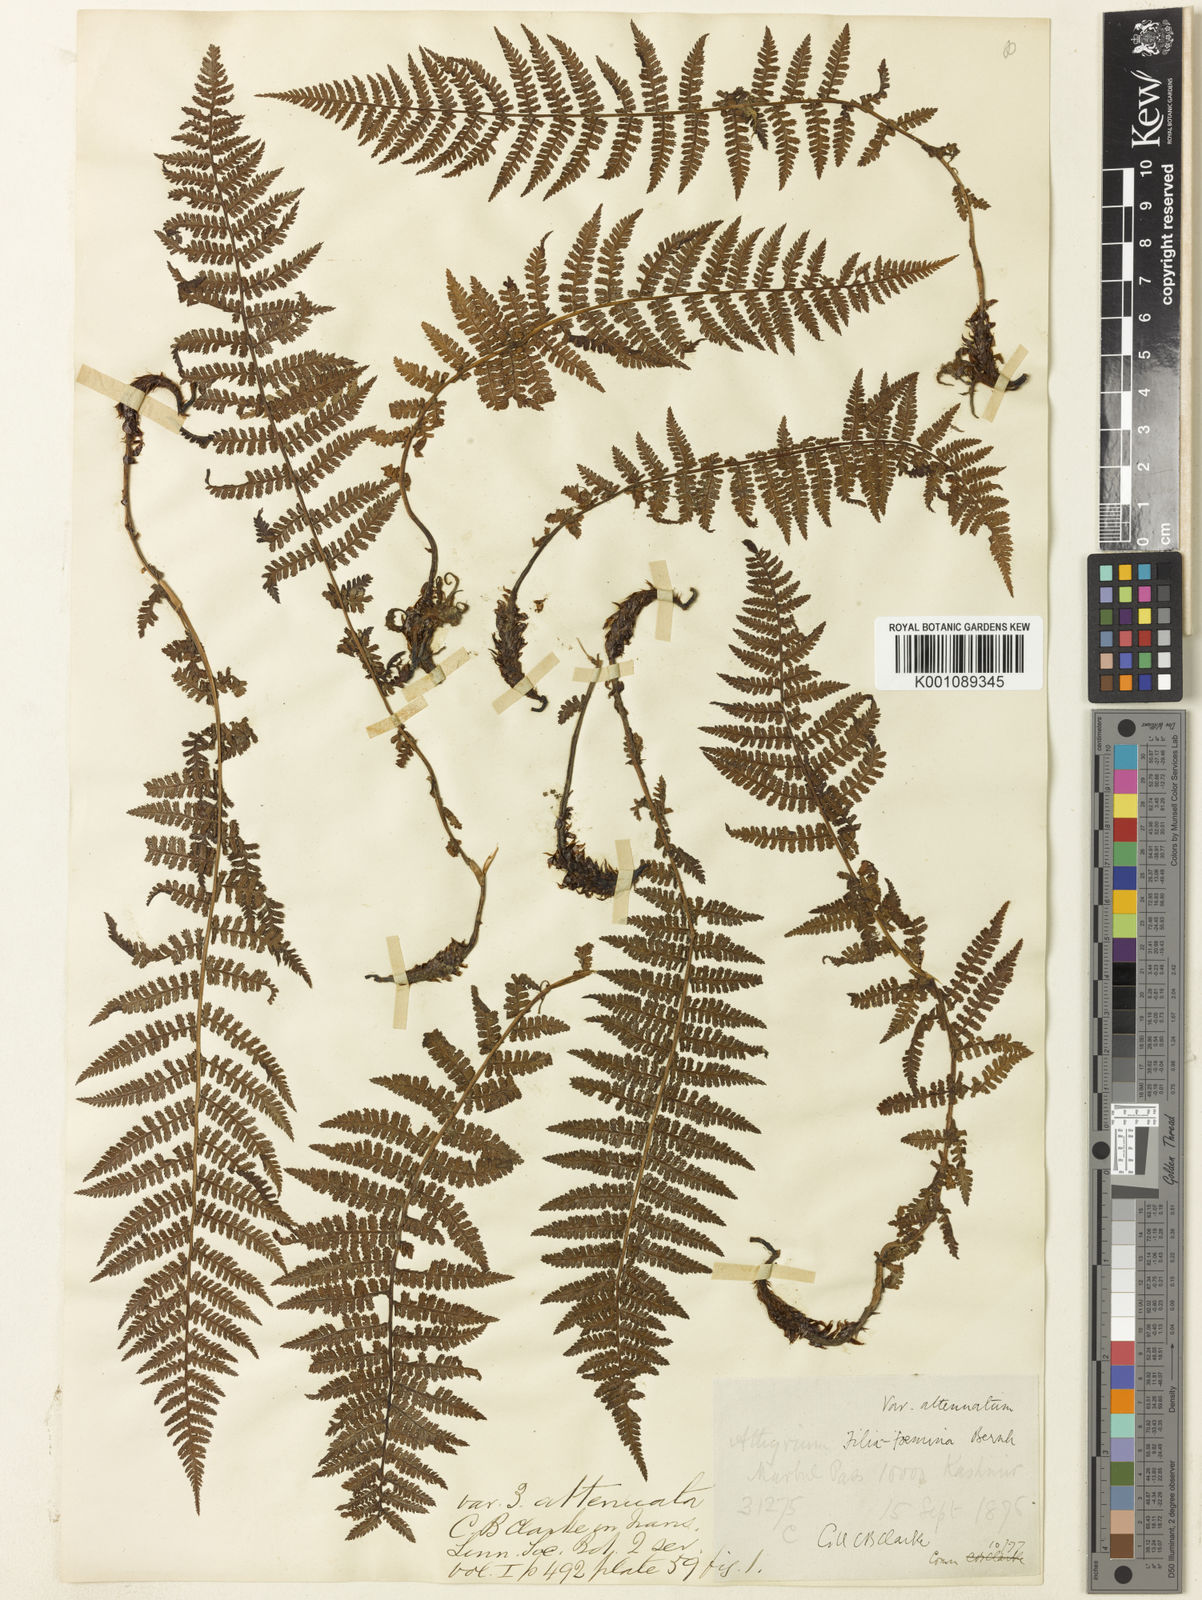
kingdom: Plantae
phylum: Tracheophyta
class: Polypodiopsida
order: Polypodiales
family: Athyriaceae
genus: Athyrium
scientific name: Athyrium
